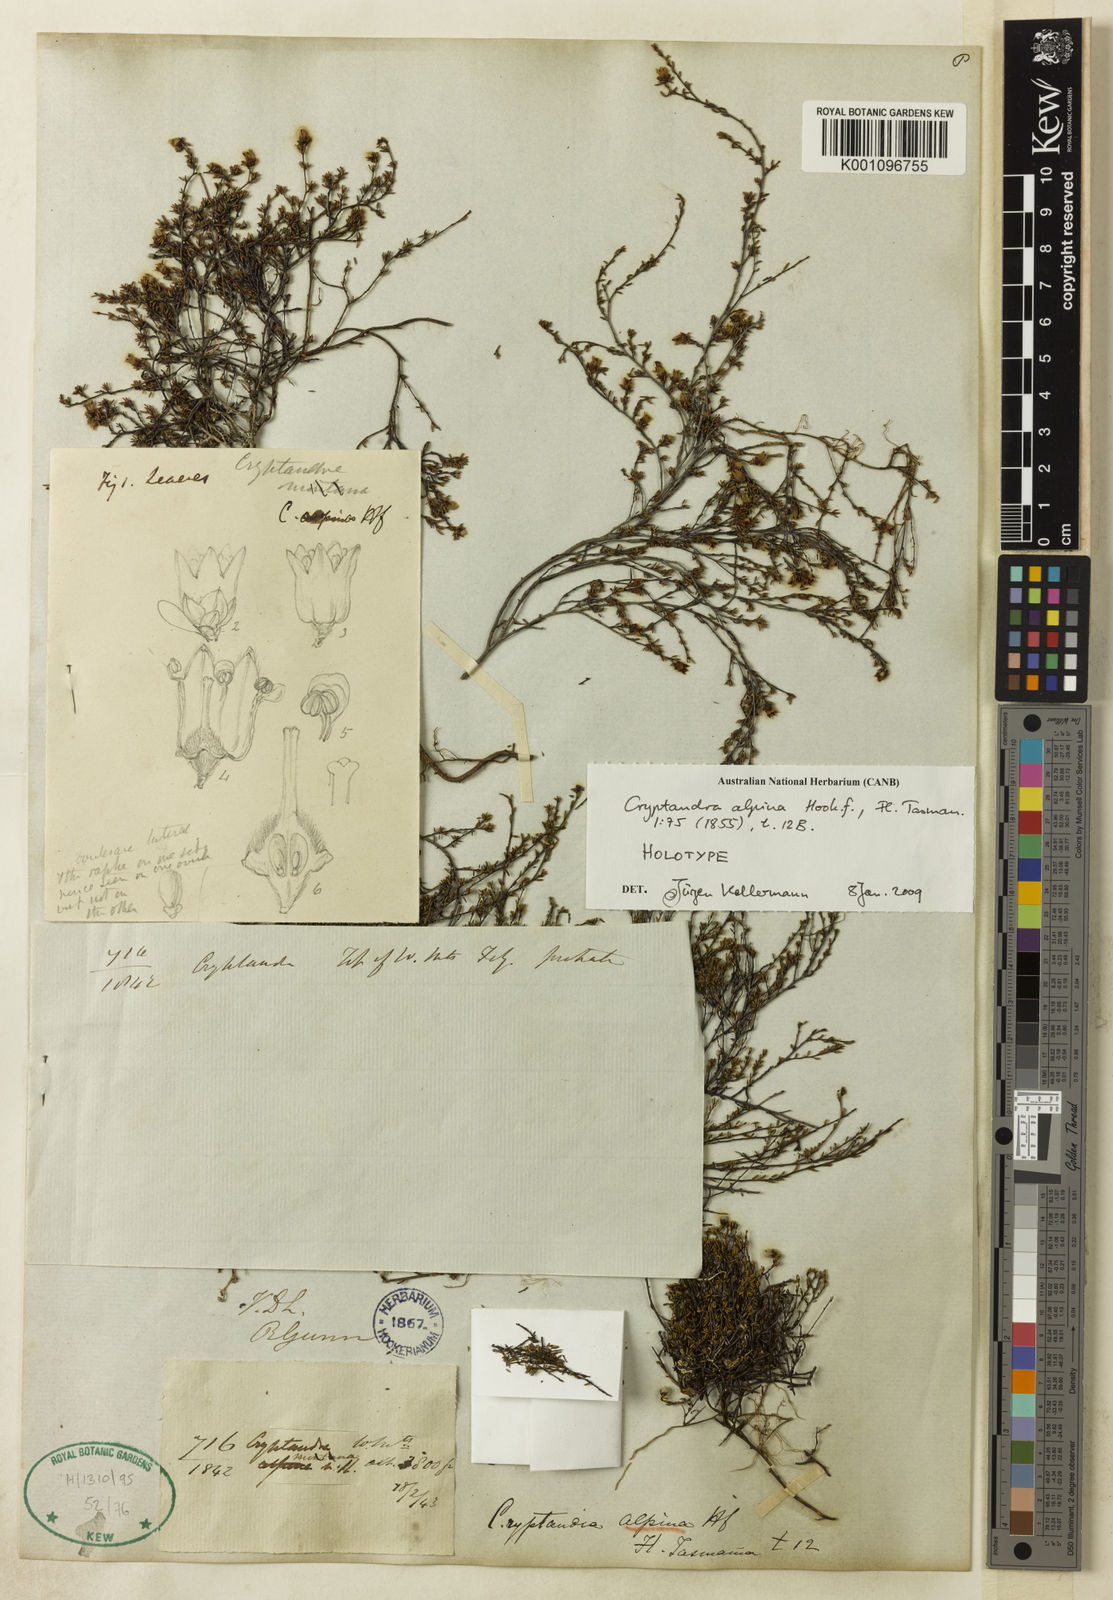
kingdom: Plantae
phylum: Tracheophyta
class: Magnoliopsida
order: Rosales
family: Rhamnaceae
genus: Cryptandra
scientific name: Cryptandra alpina
